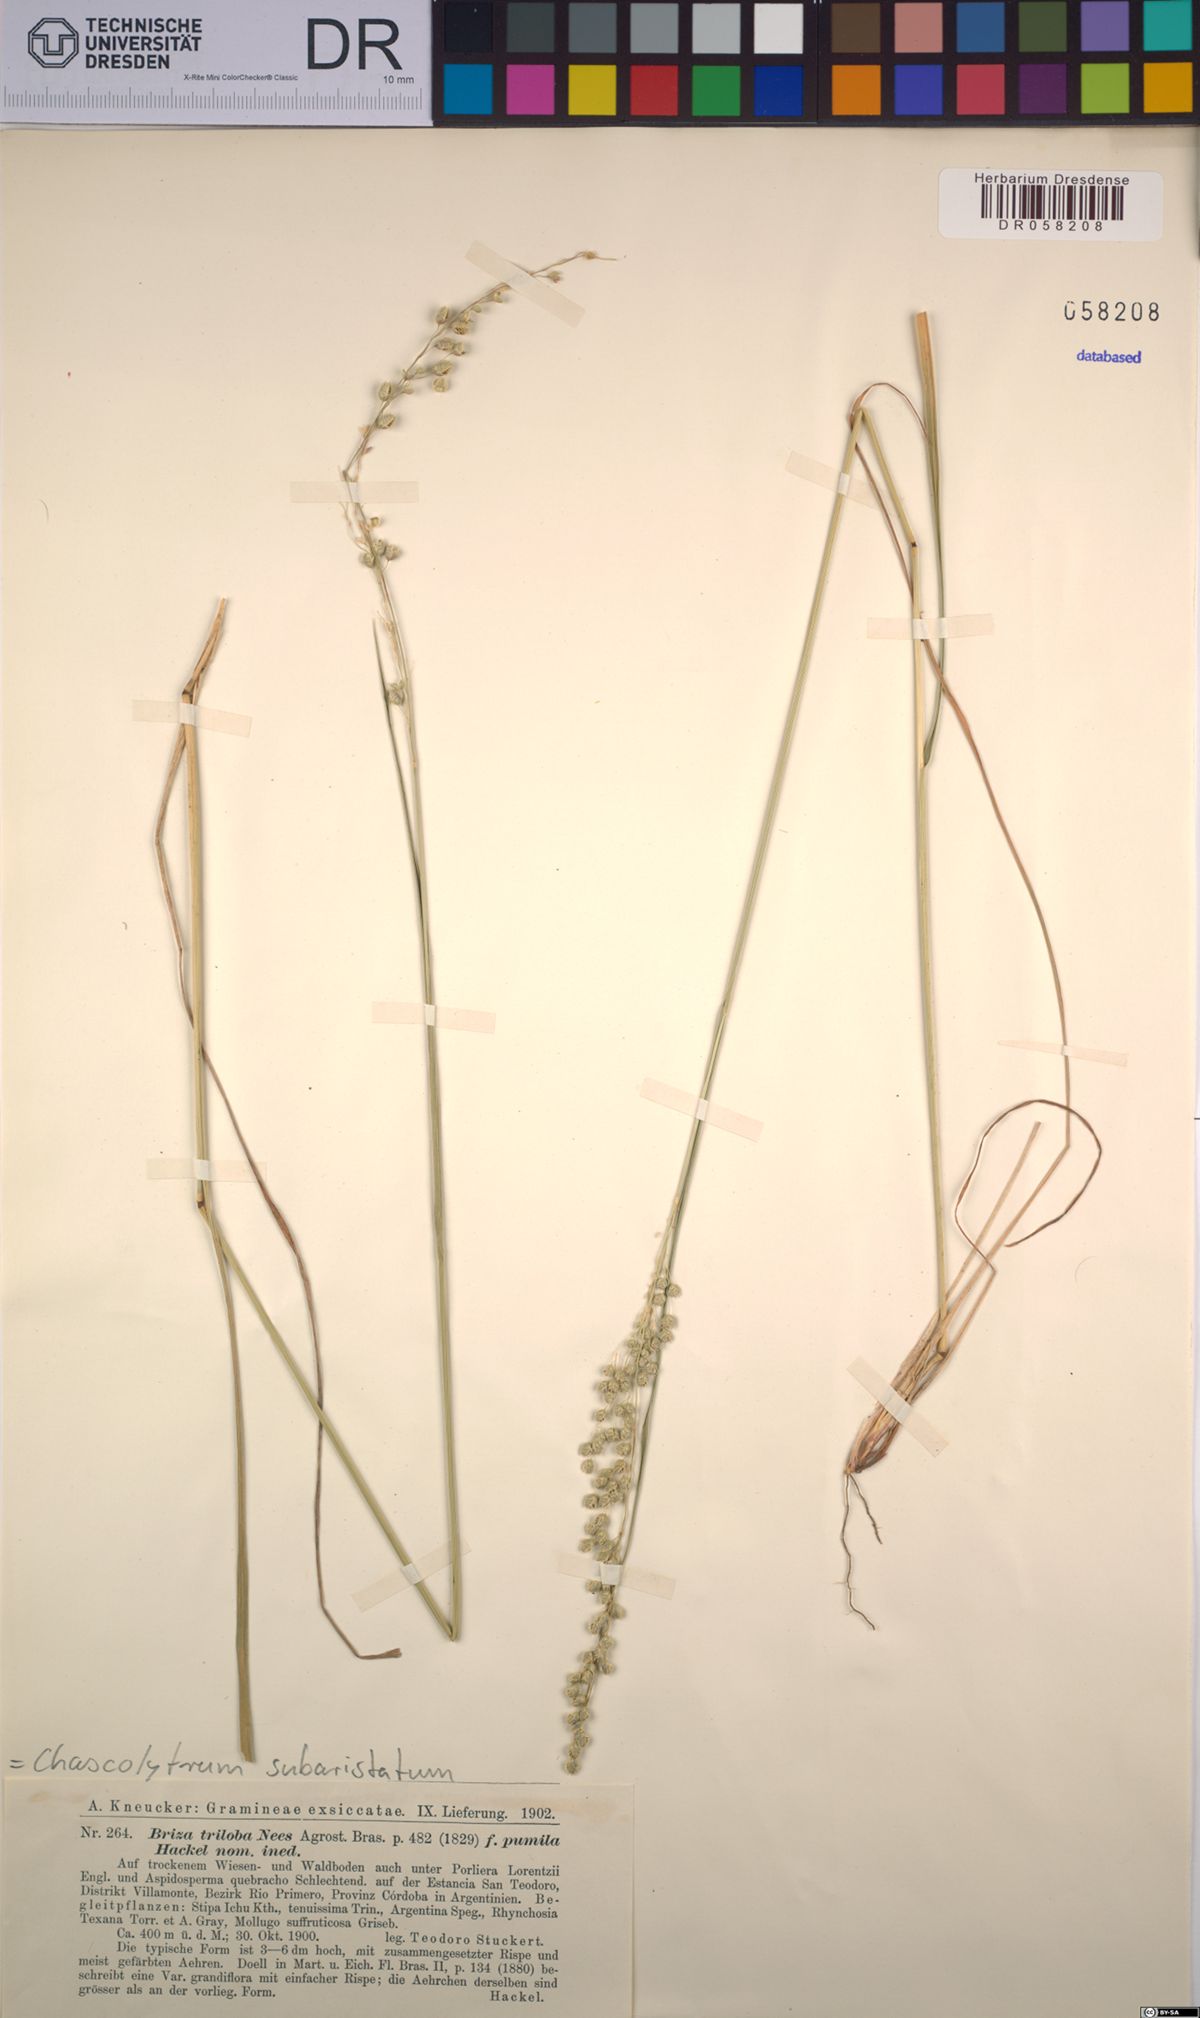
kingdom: Plantae
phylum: Tracheophyta
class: Liliopsida
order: Poales
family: Poaceae
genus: Chascolytrum
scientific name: Chascolytrum subaristatum
